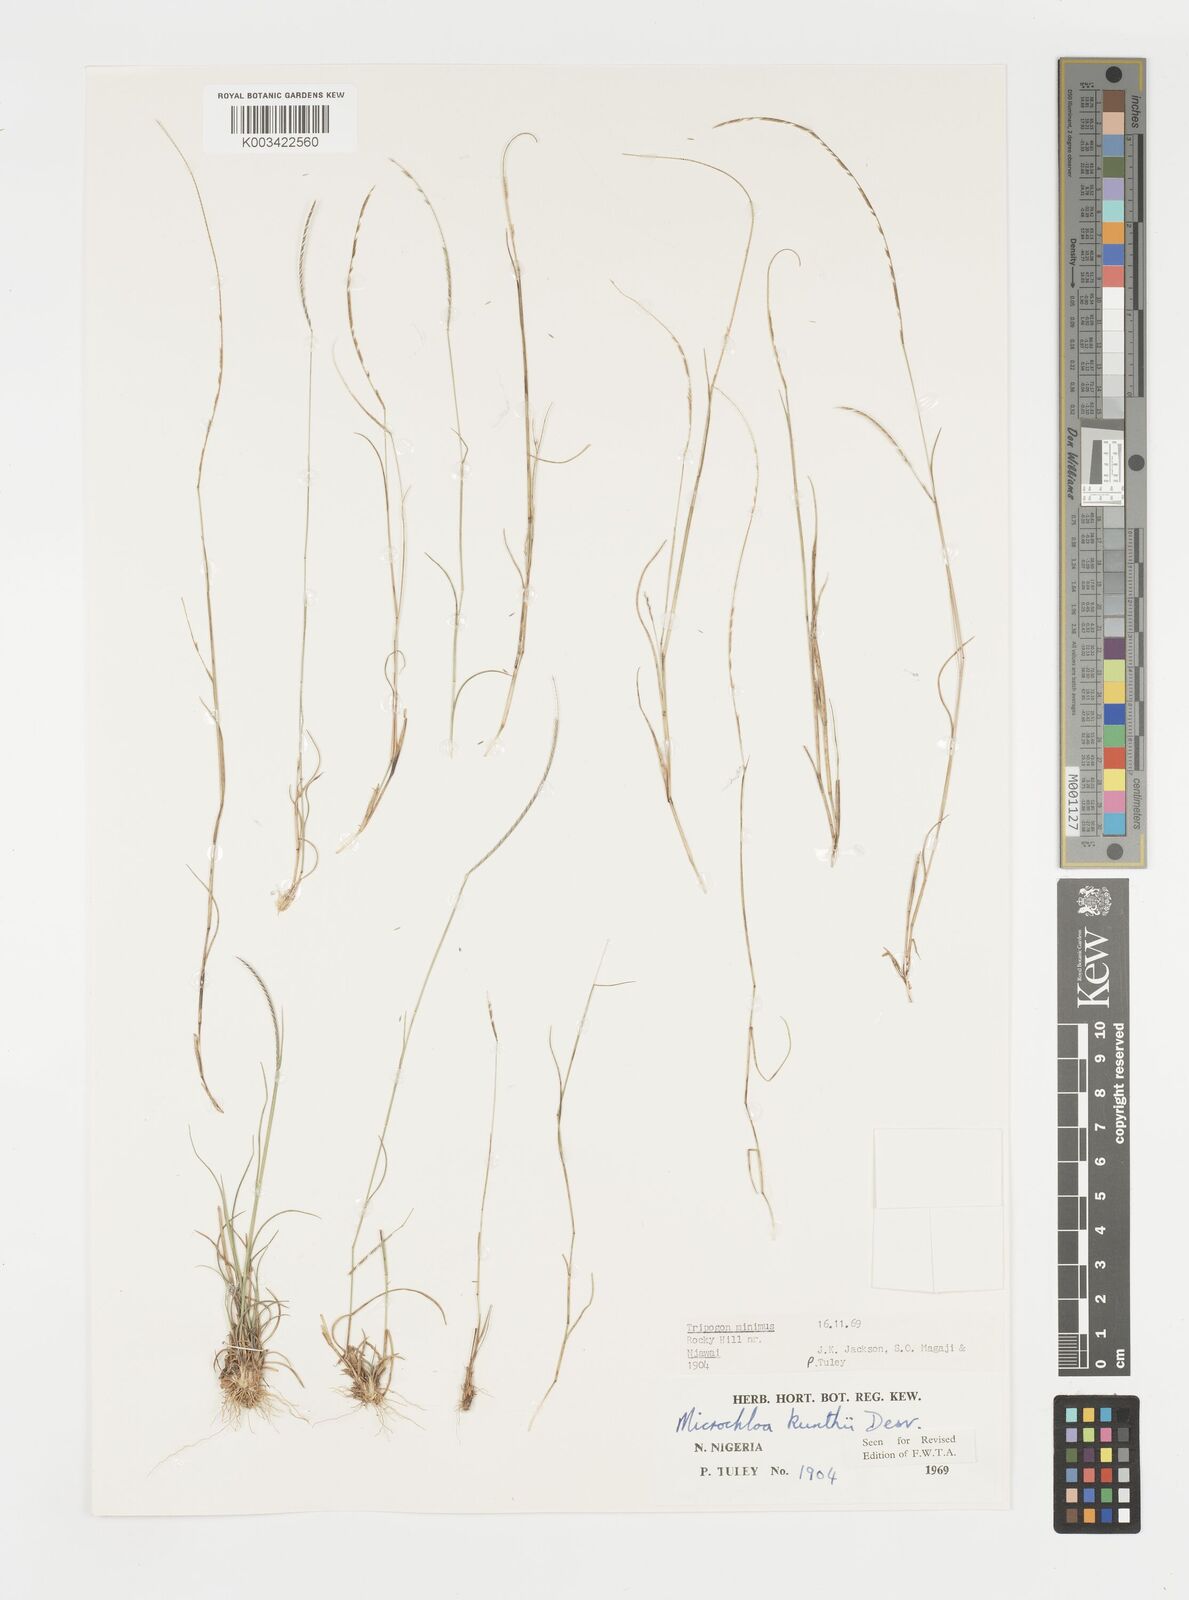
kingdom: Plantae
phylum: Tracheophyta
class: Liliopsida
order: Poales
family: Poaceae
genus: Microchloa
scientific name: Microchloa kunthii
